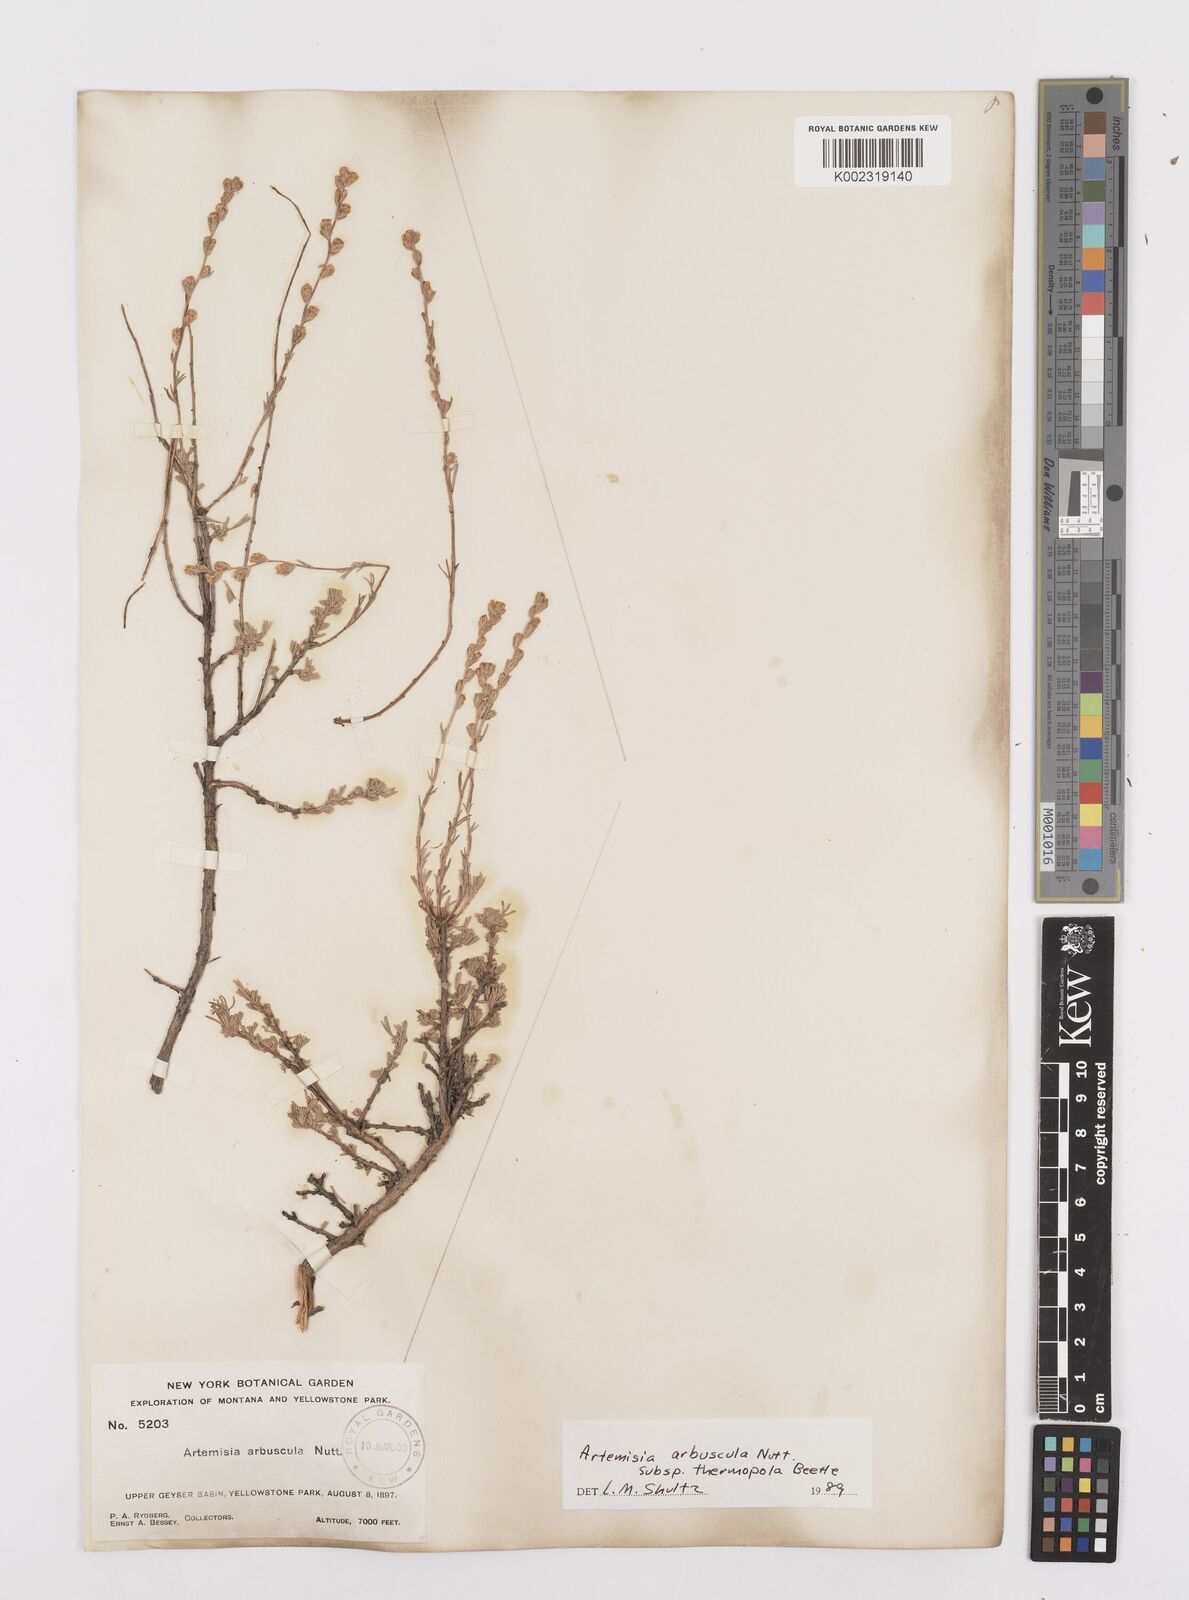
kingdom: Plantae
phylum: Tracheophyta
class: Magnoliopsida
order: Asterales
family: Asteraceae
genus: Artemisia
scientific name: Artemisia arbuscula
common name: Sagebrush
